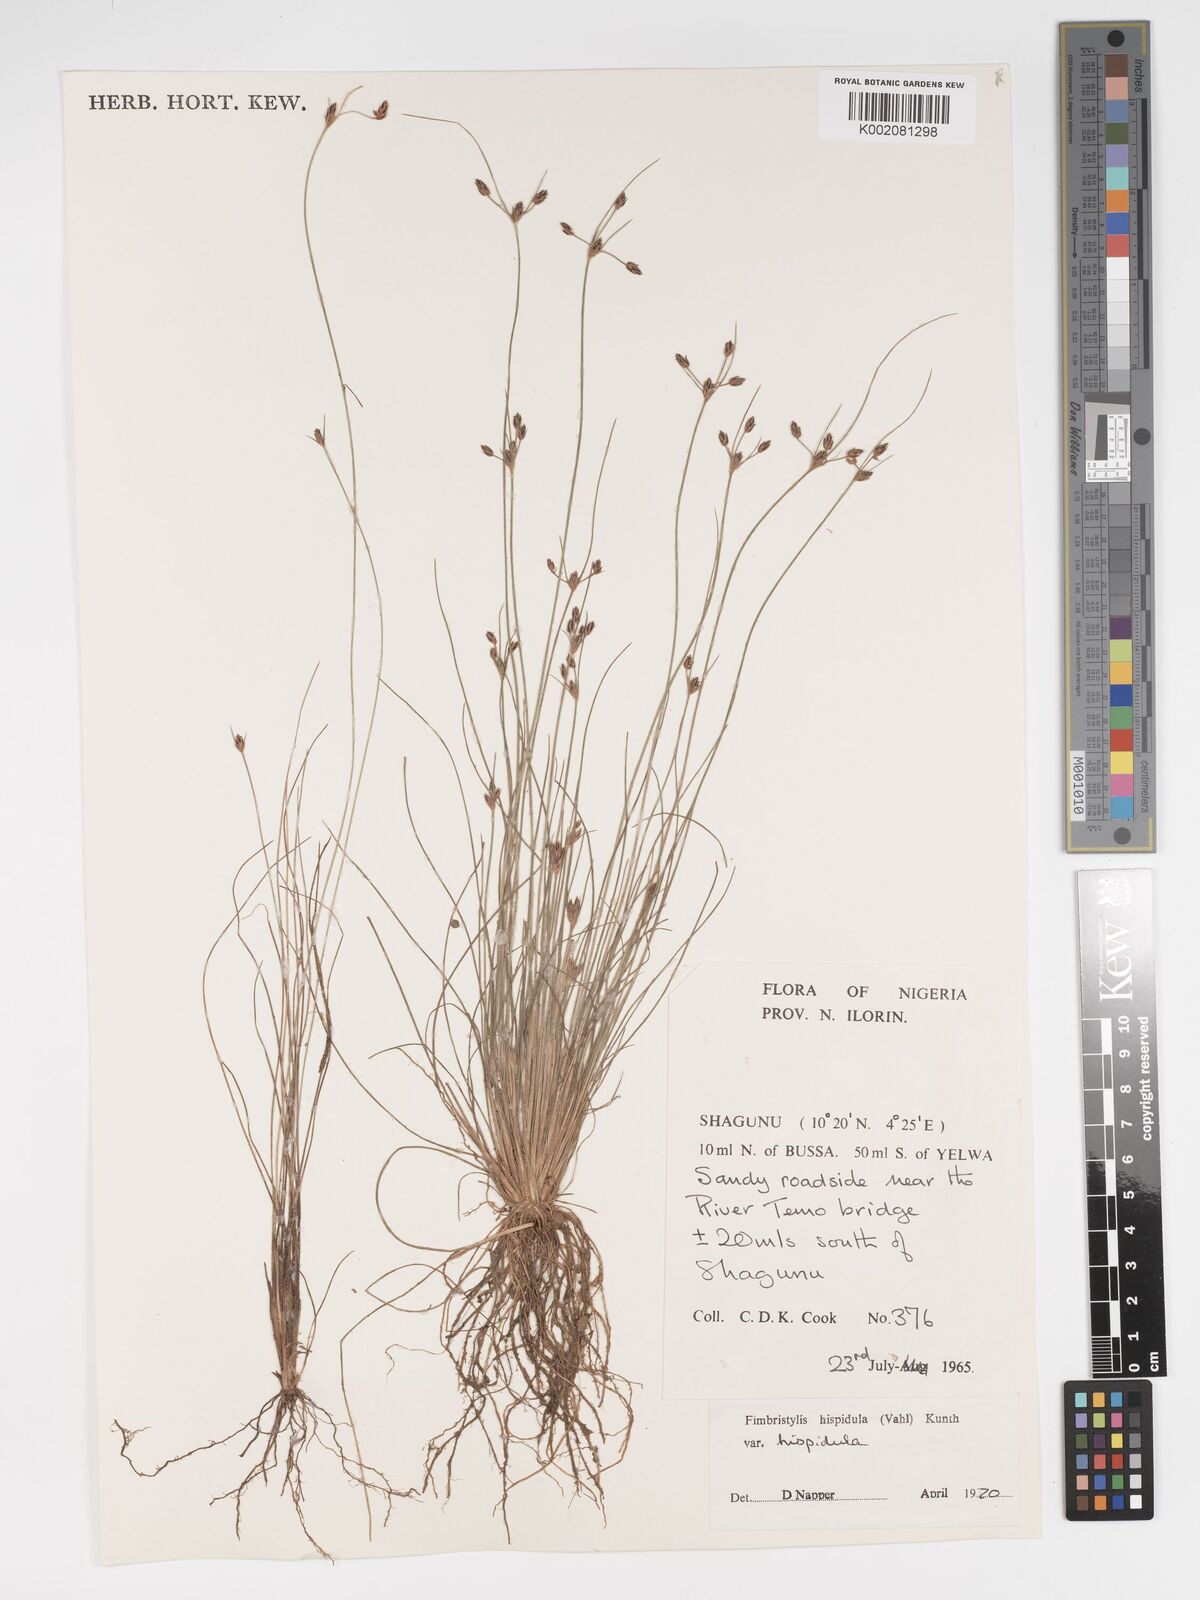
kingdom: Plantae
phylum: Tracheophyta
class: Liliopsida
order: Poales
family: Cyperaceae
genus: Bulbostylis
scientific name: Bulbostylis hispidula
